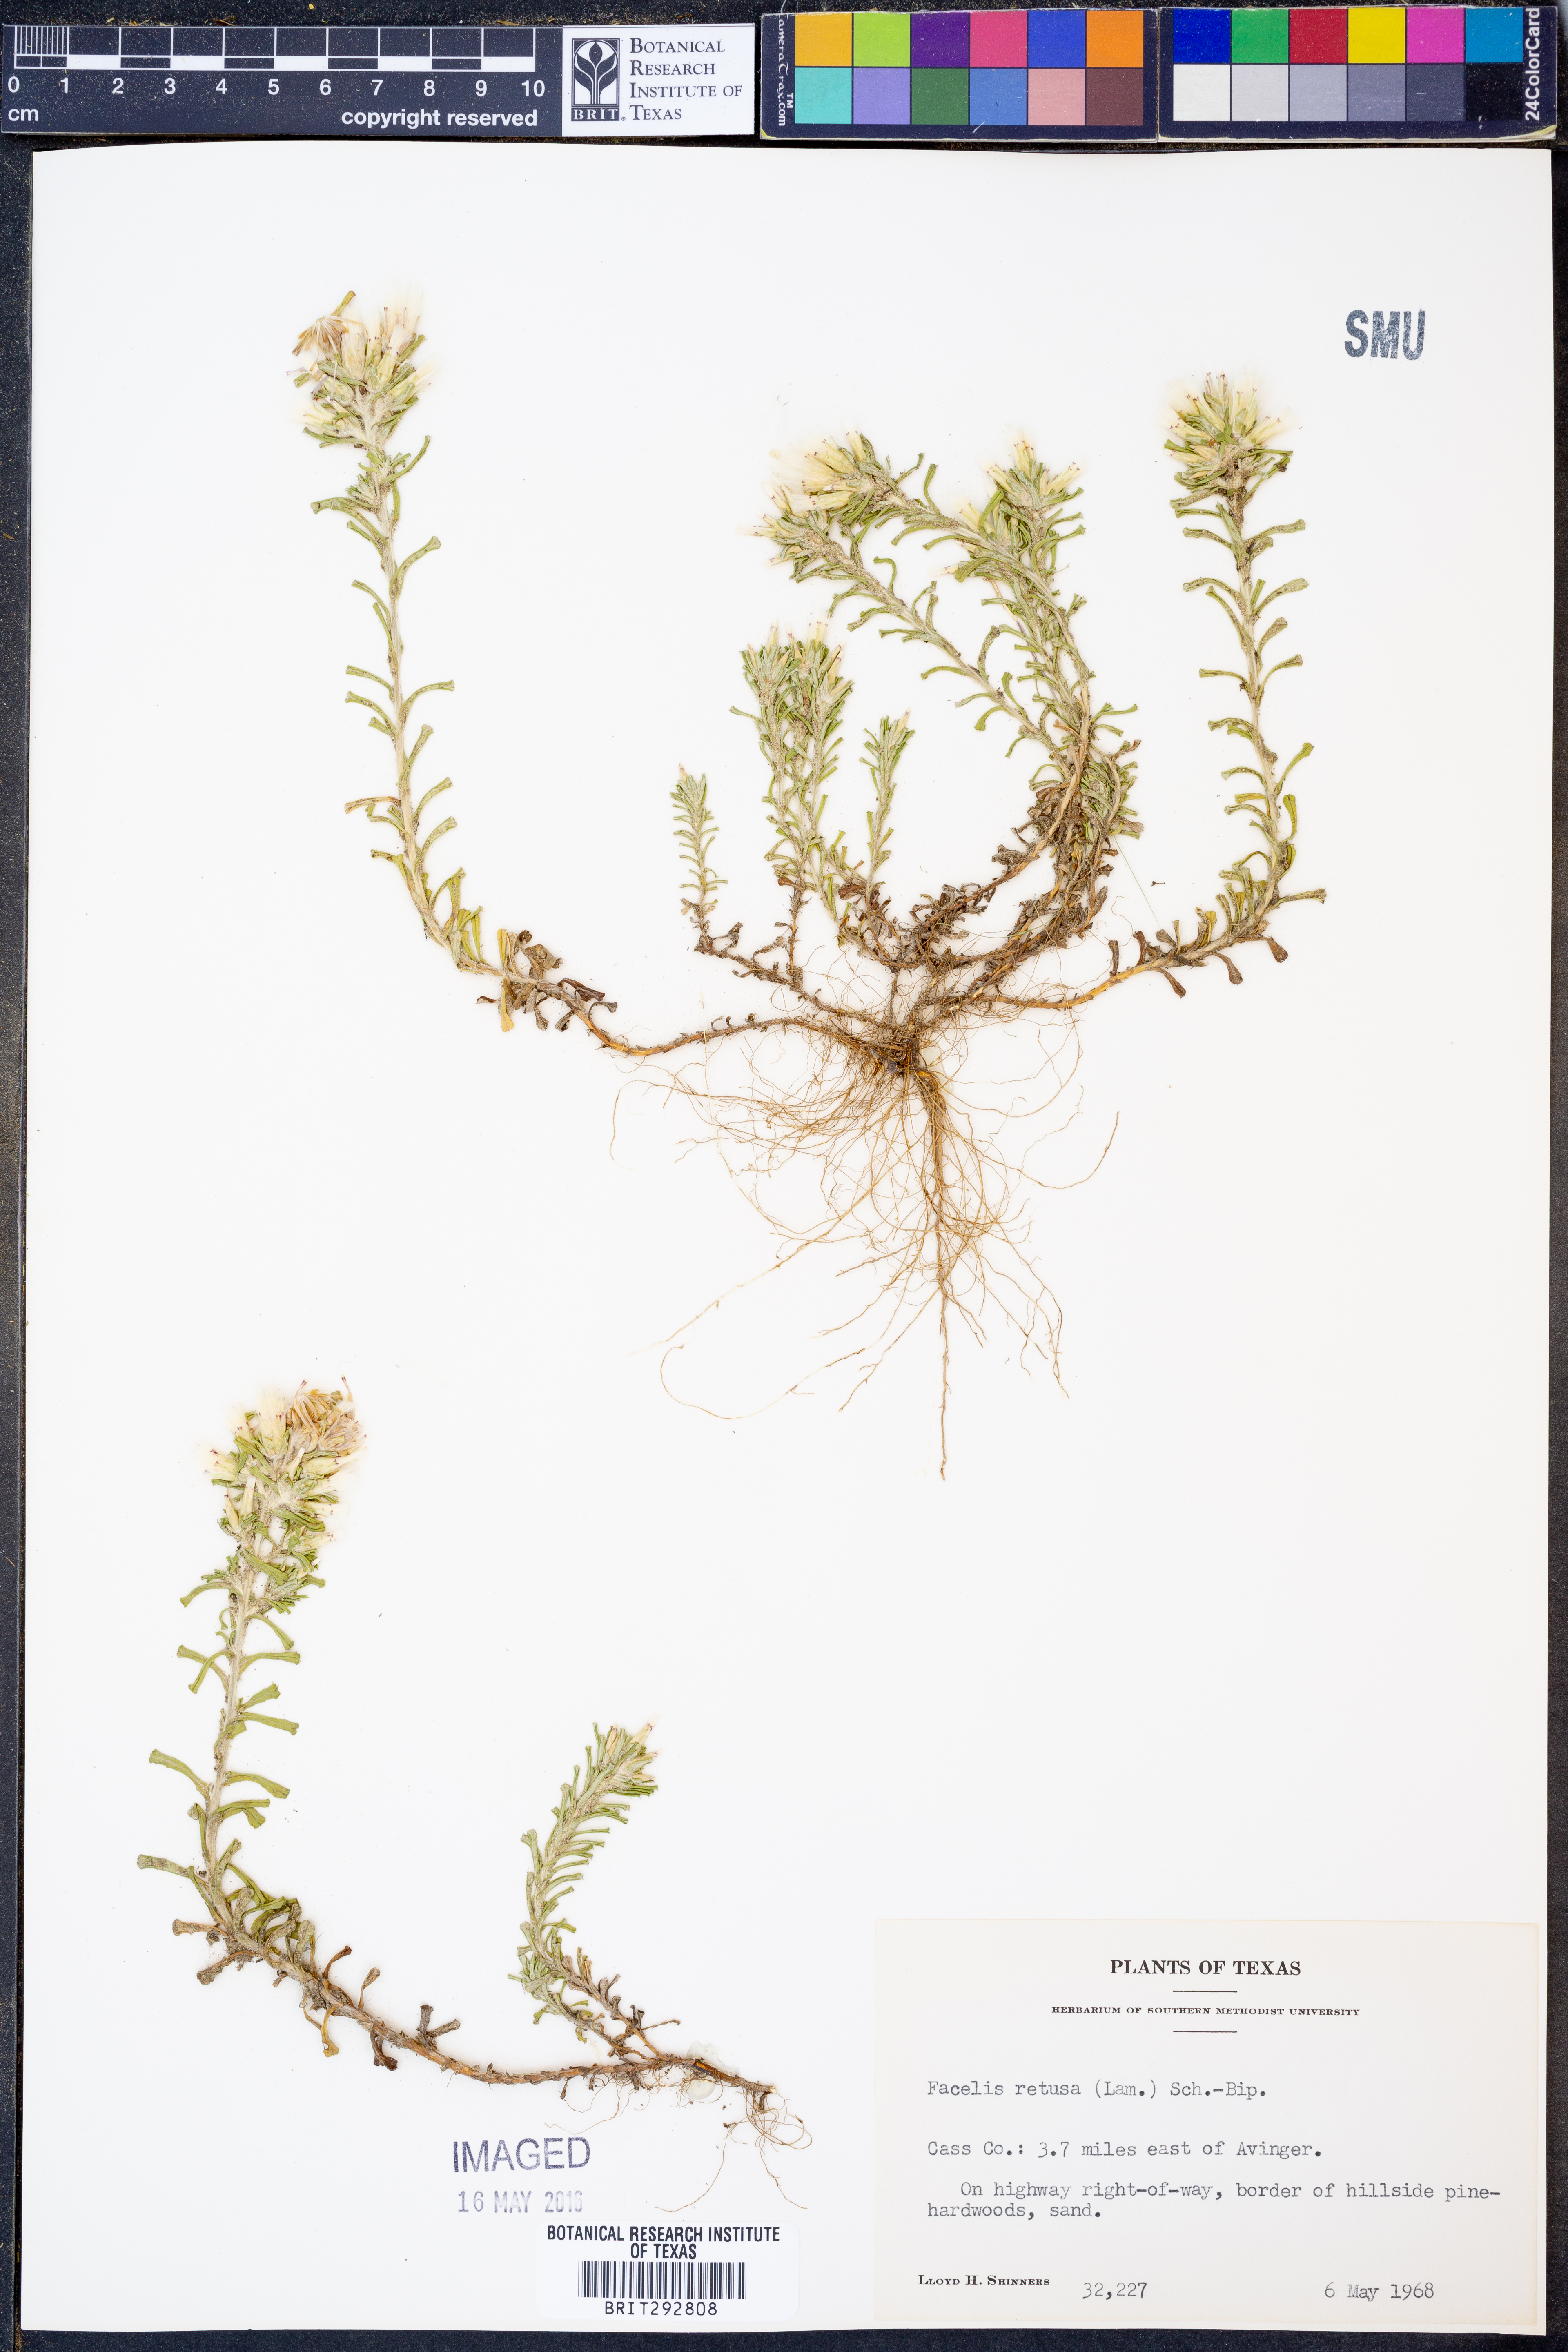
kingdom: Plantae
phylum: Tracheophyta
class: Magnoliopsida
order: Asterales
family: Asteraceae
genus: Facelis
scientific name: Facelis retusa
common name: Annual trampweed
